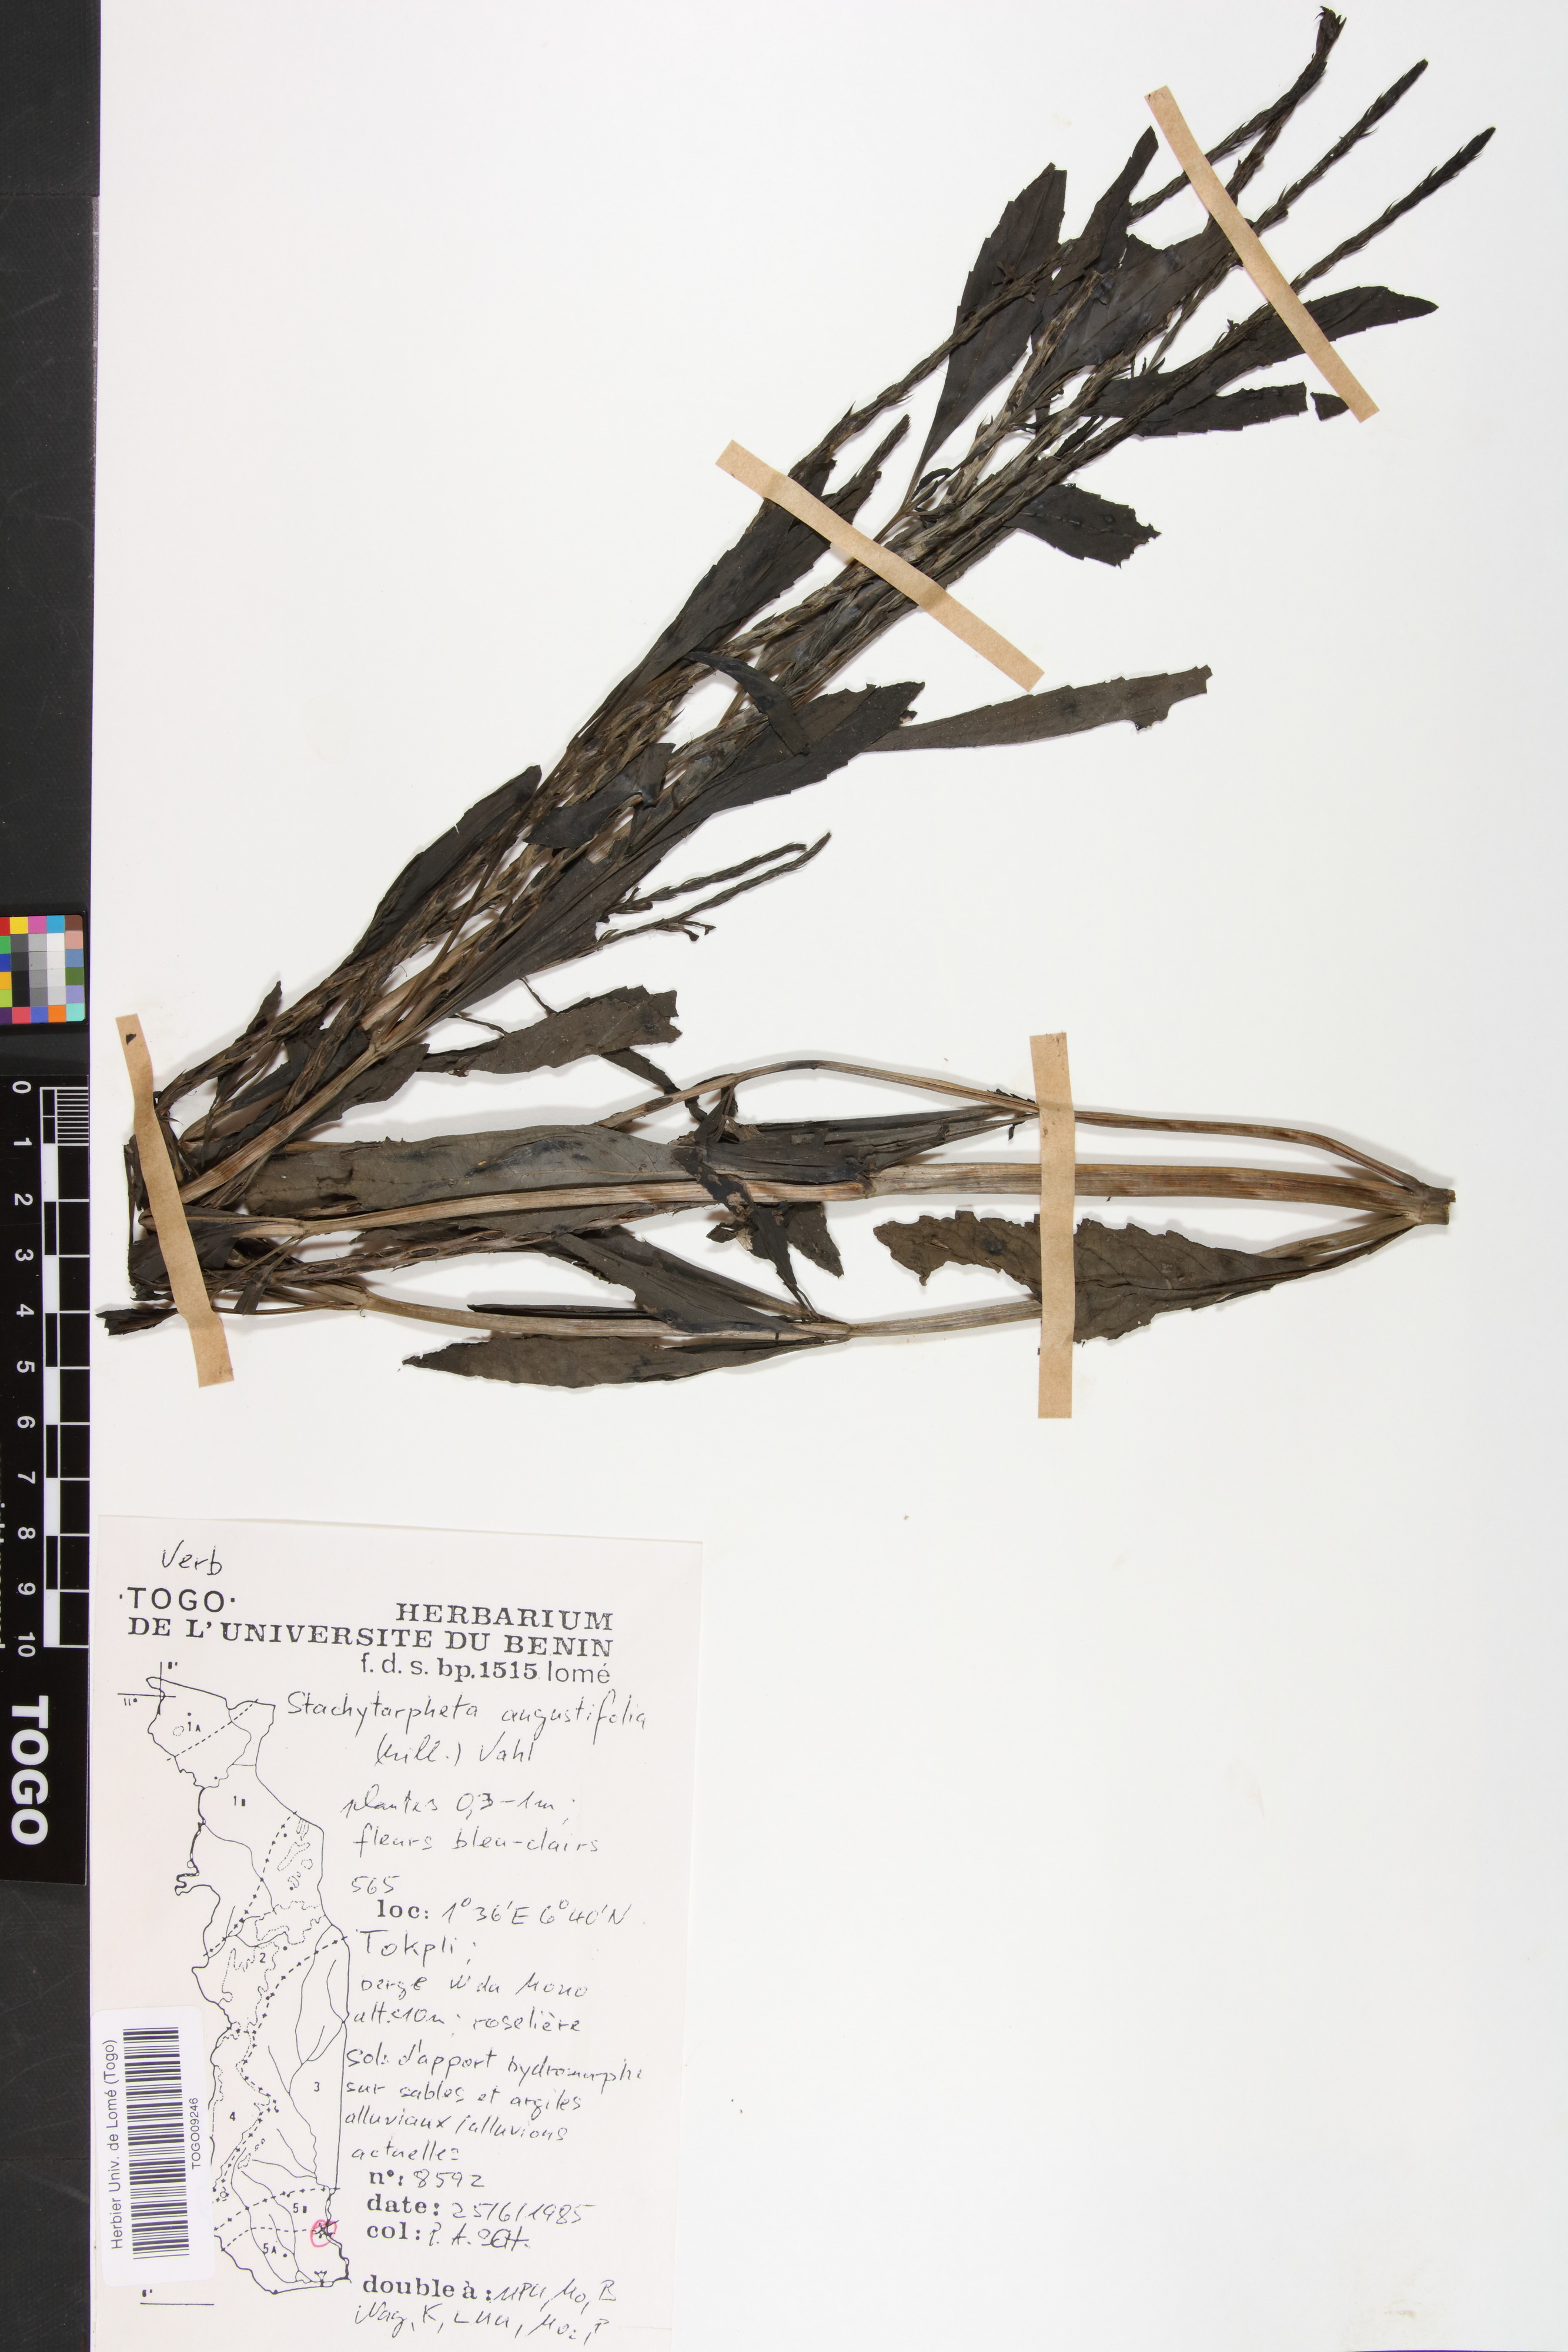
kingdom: Plantae
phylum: Tracheophyta
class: Magnoliopsida
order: Lamiales
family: Verbenaceae
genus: Stachytarpheta
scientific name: Stachytarpheta indica
